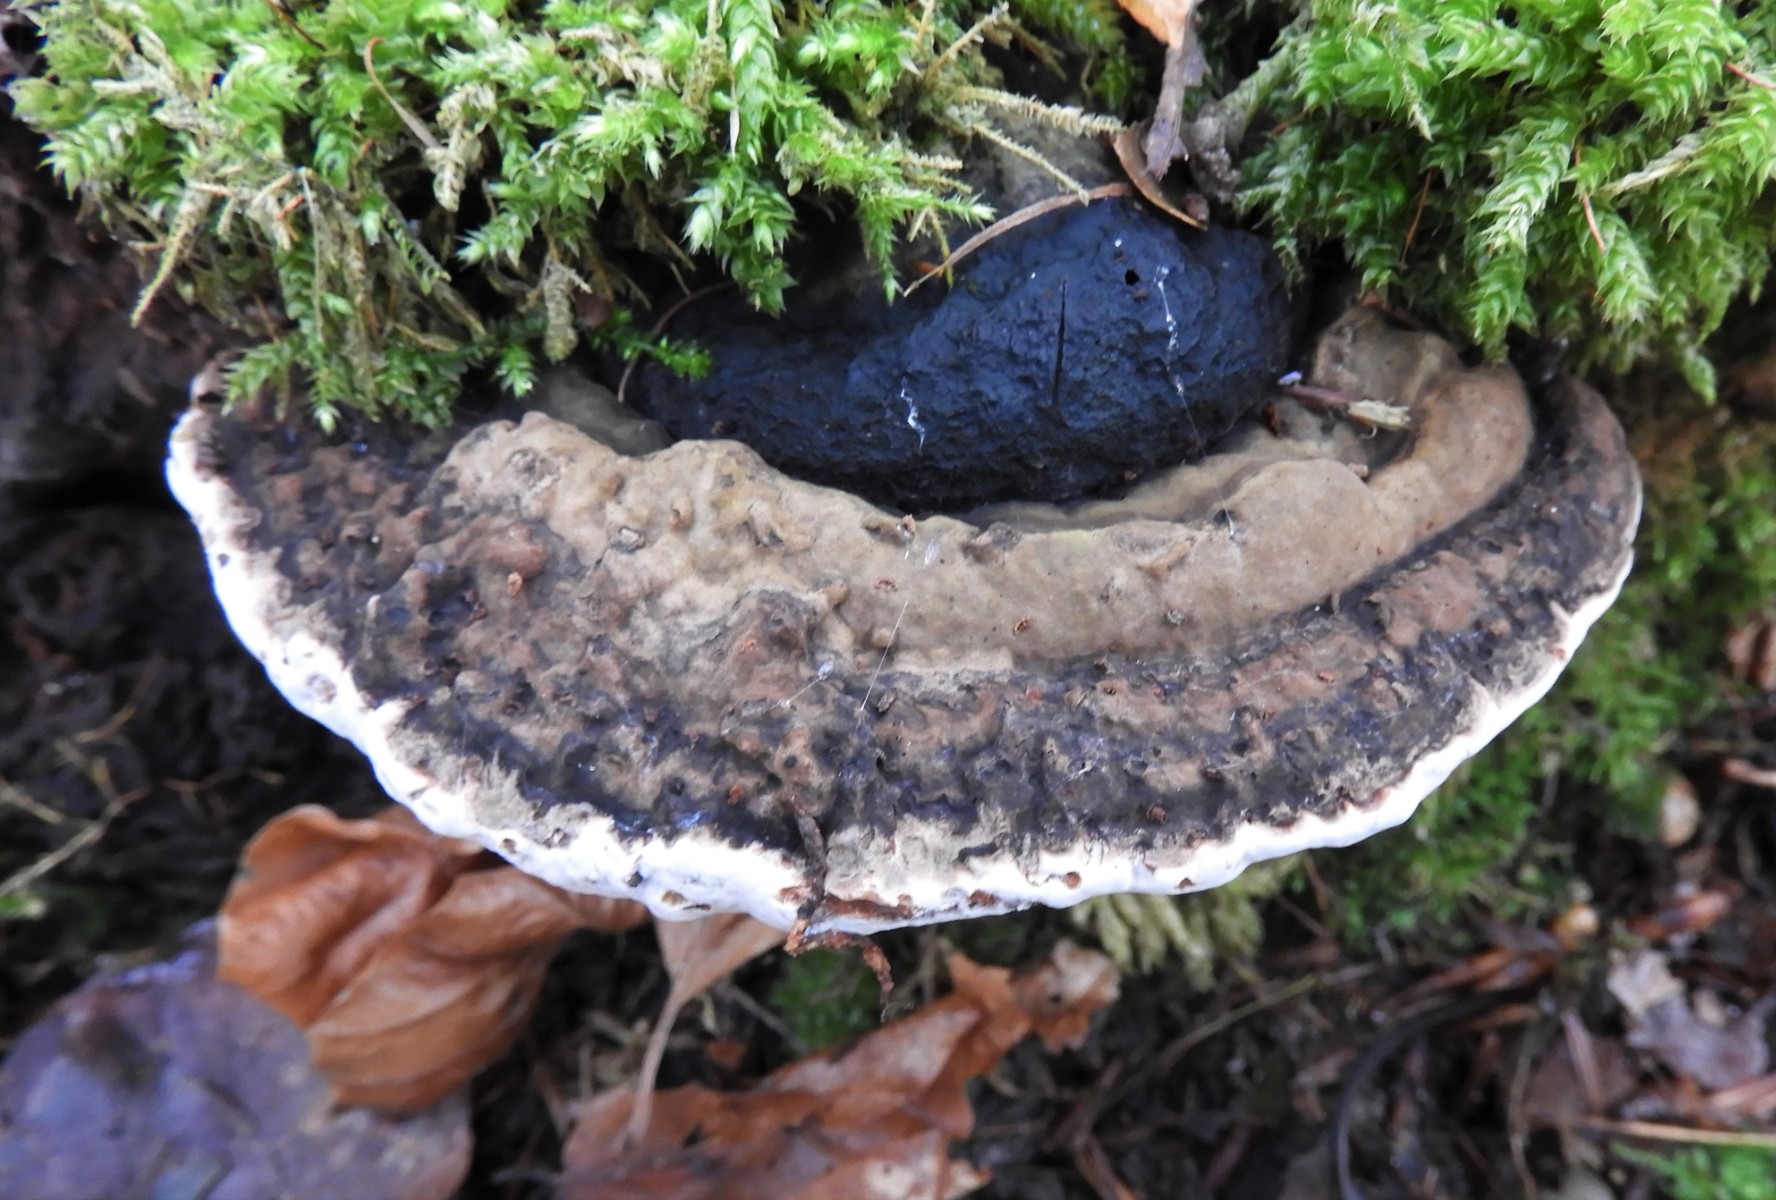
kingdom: Fungi
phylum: Basidiomycota
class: Agaricomycetes
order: Polyporales
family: Polyporaceae
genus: Ganoderma
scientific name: Ganoderma applanatum
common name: flad lakporesvamp
